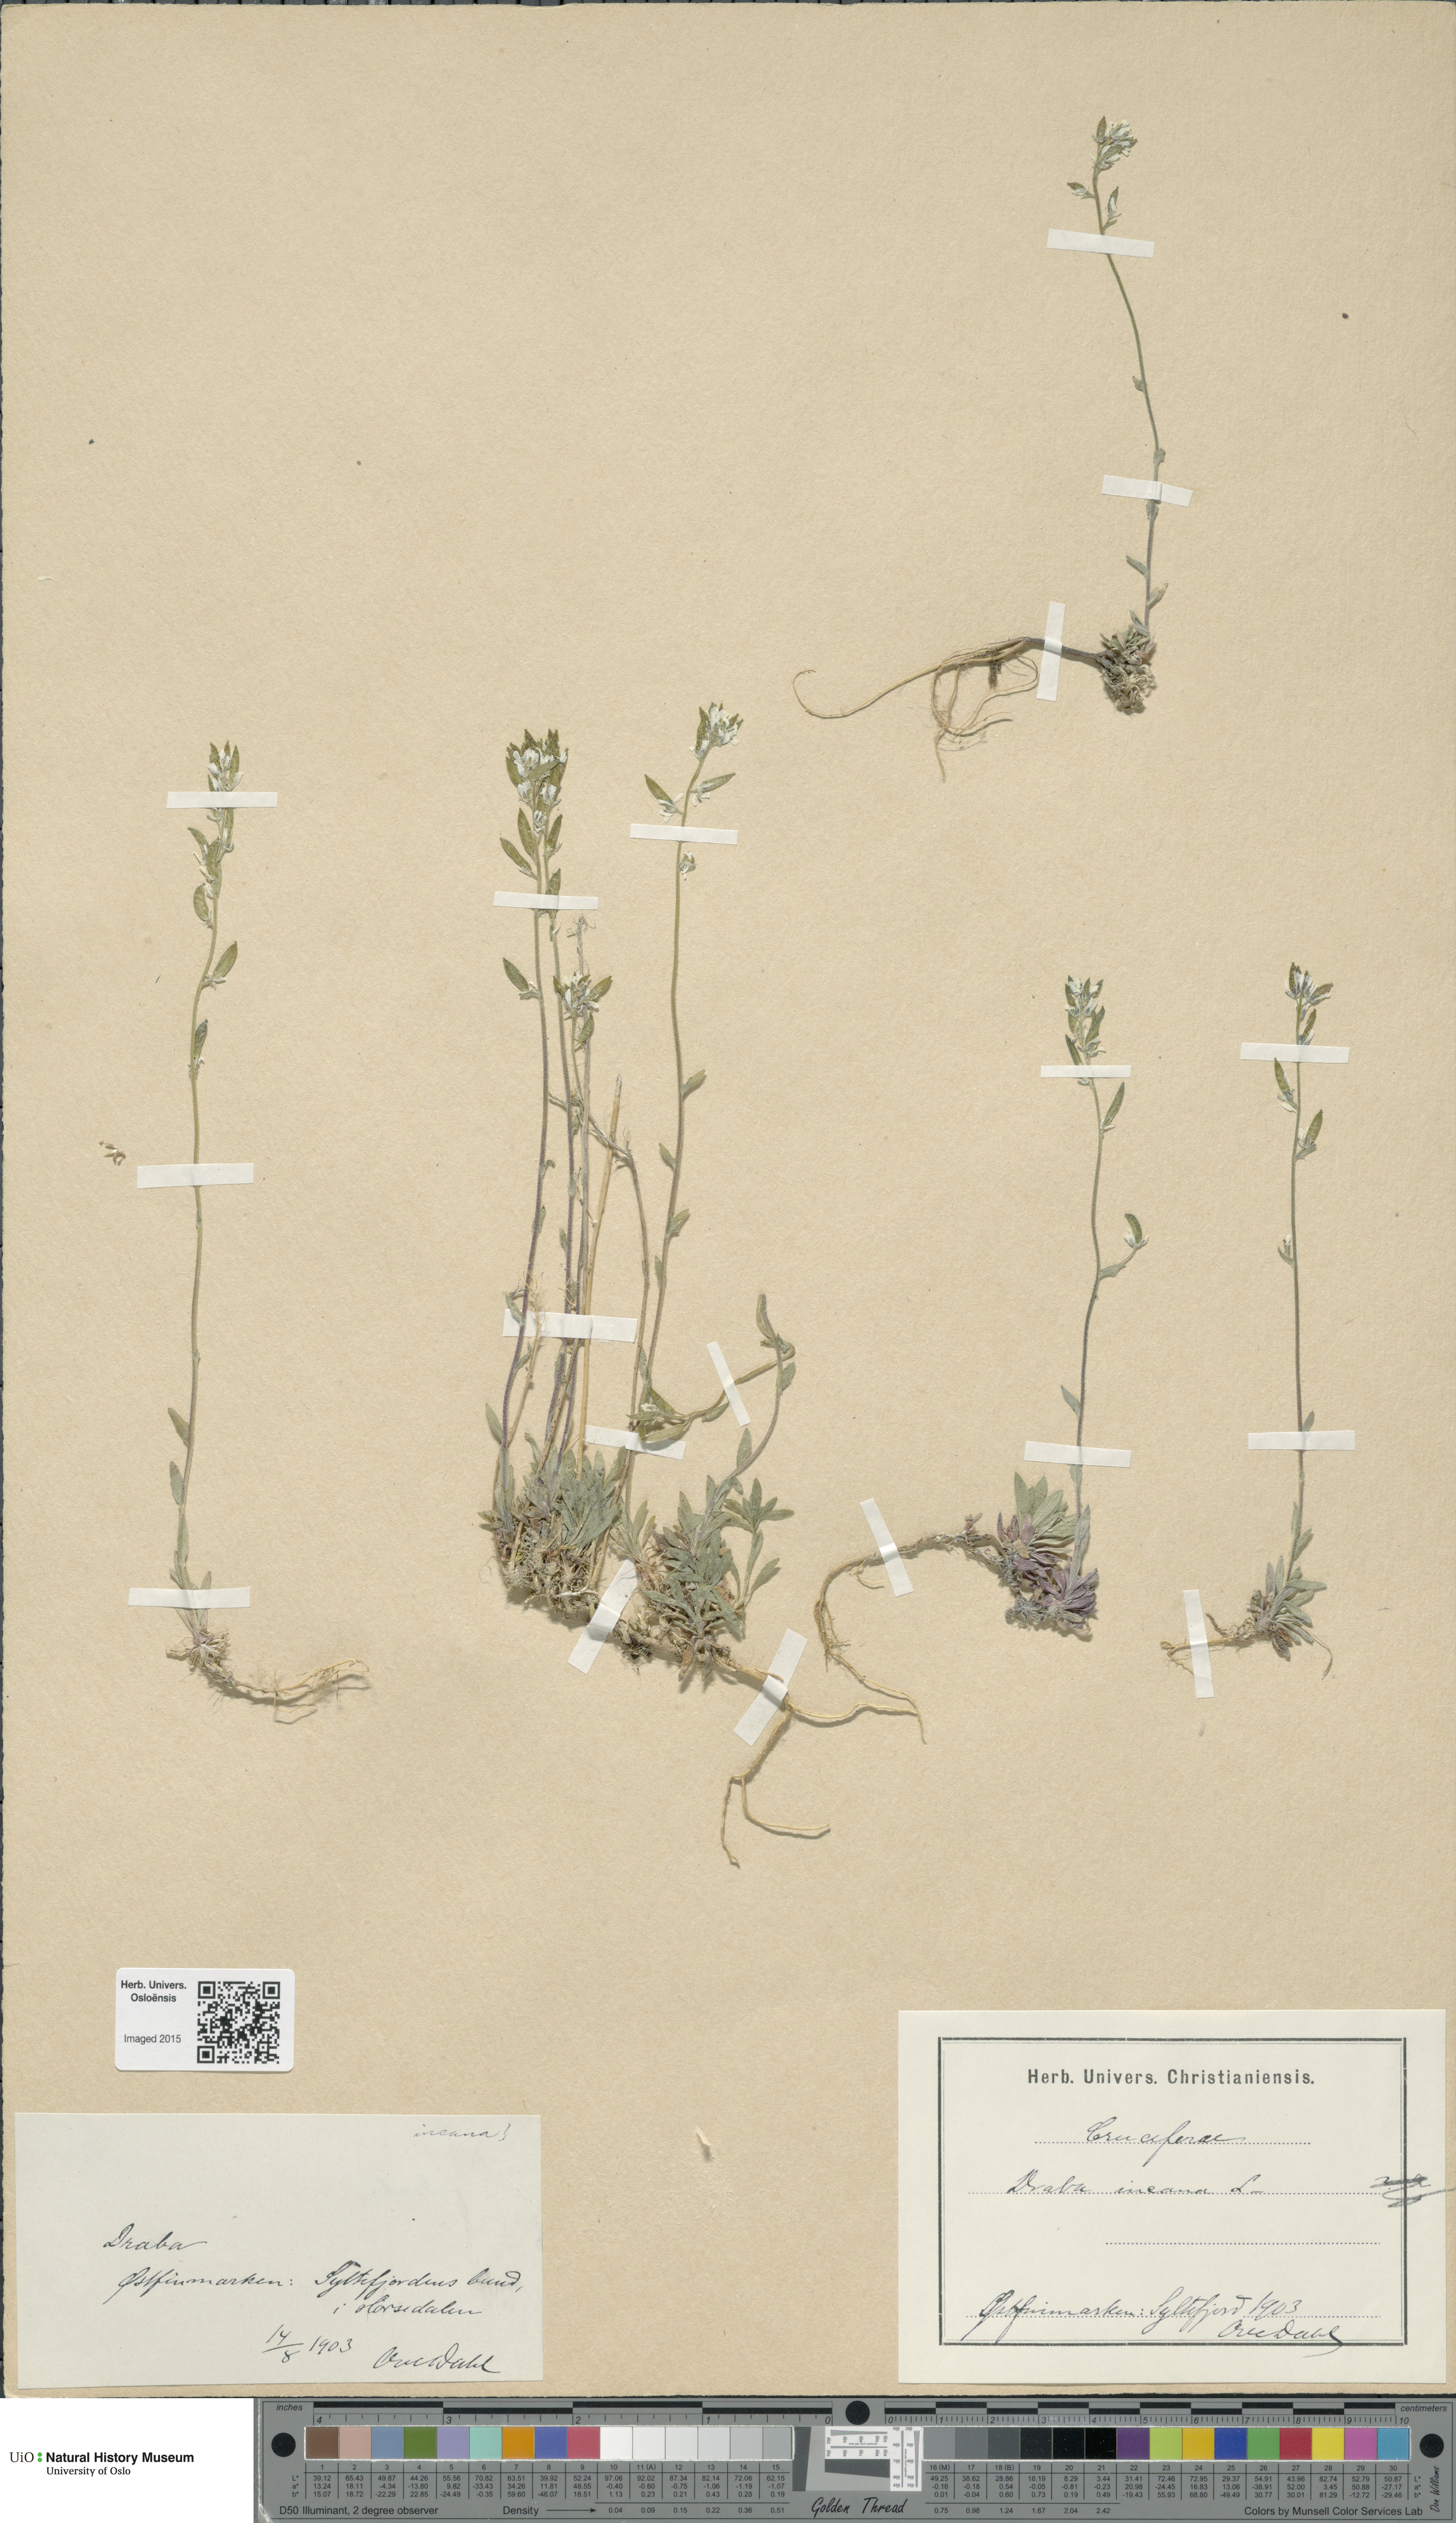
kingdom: Plantae
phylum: Tracheophyta
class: Magnoliopsida
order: Brassicales
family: Brassicaceae
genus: Draba
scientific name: Draba incana
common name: Hoary whitlow-grass
